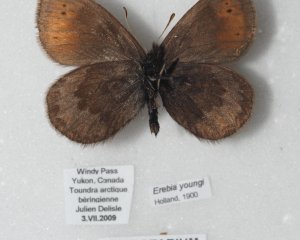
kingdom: Animalia
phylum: Arthropoda
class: Insecta
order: Lepidoptera
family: Nymphalidae
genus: Erebia
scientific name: Erebia youngi
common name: Four-dotted Alpine
